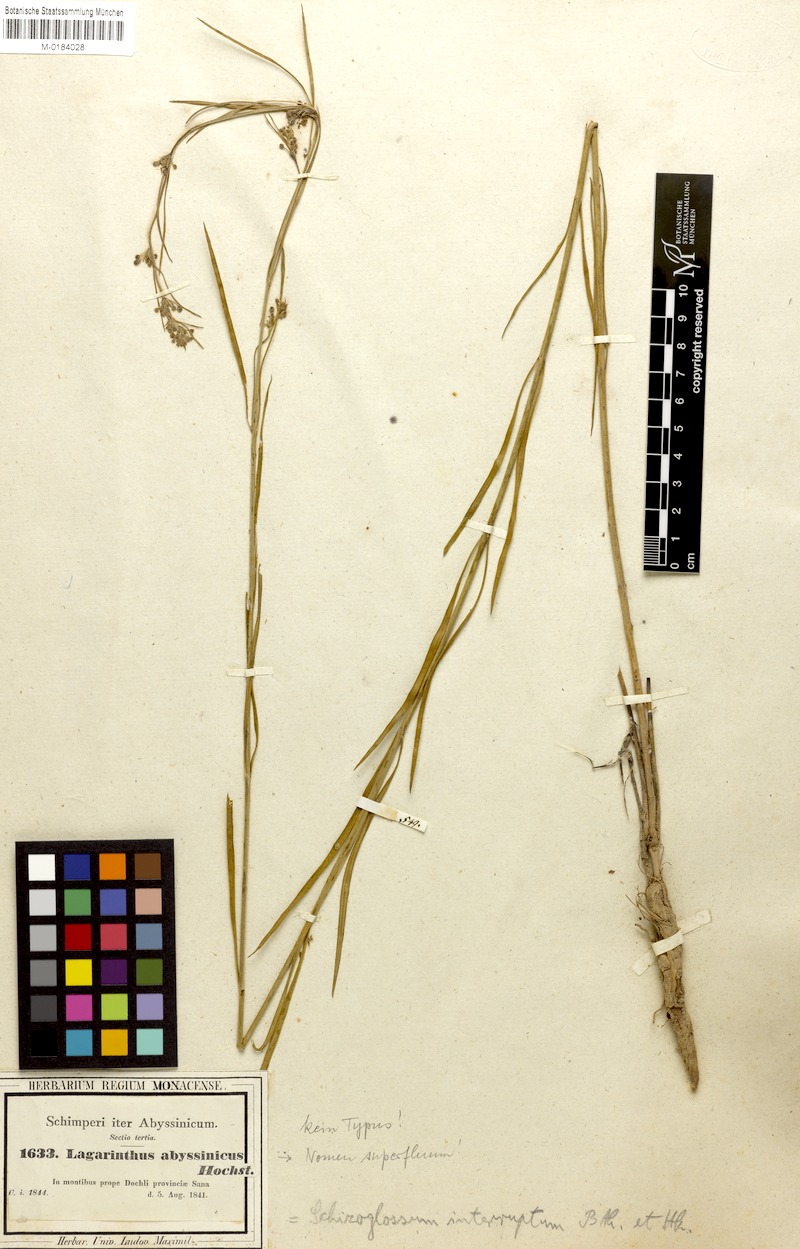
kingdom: Plantae
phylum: Tracheophyta
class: Magnoliopsida
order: Gentianales
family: Apocynaceae
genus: Aspidoglossum
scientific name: Aspidoglossum interruptum
